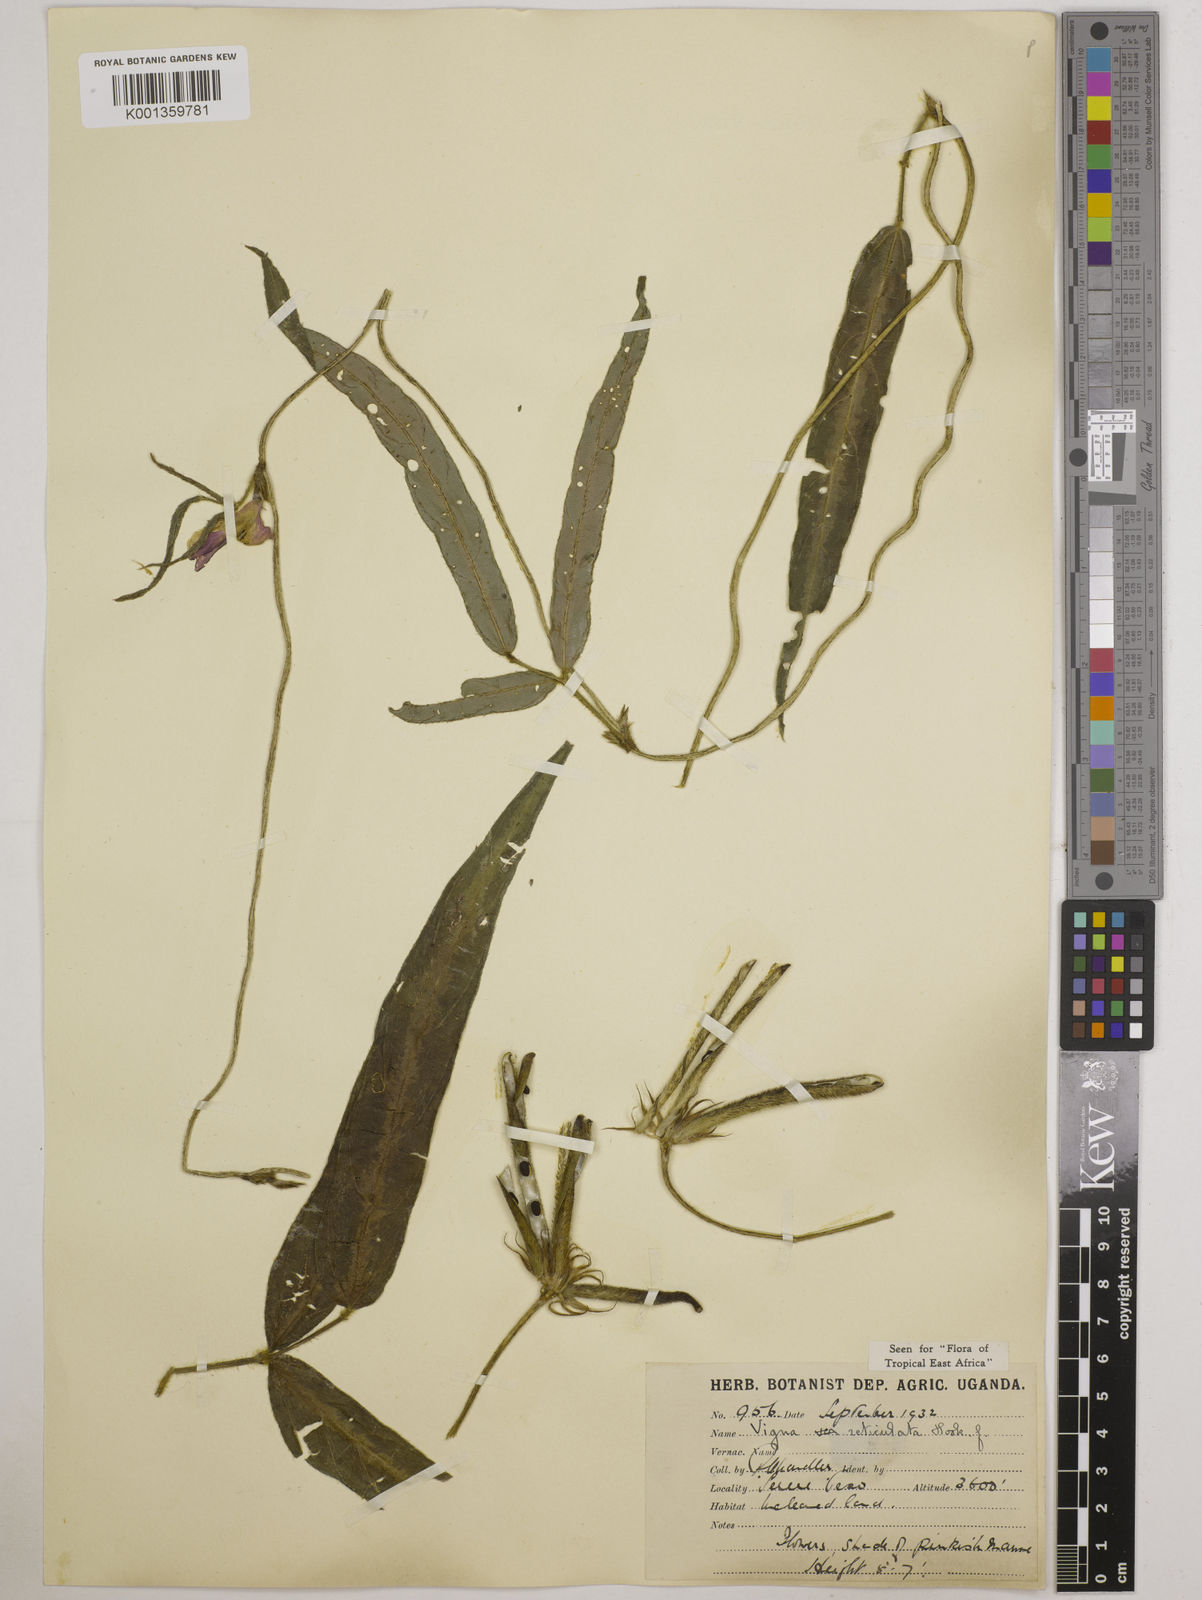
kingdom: Plantae
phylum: Tracheophyta
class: Magnoliopsida
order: Fabales
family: Fabaceae
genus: Vigna
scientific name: Vigna reticulata
